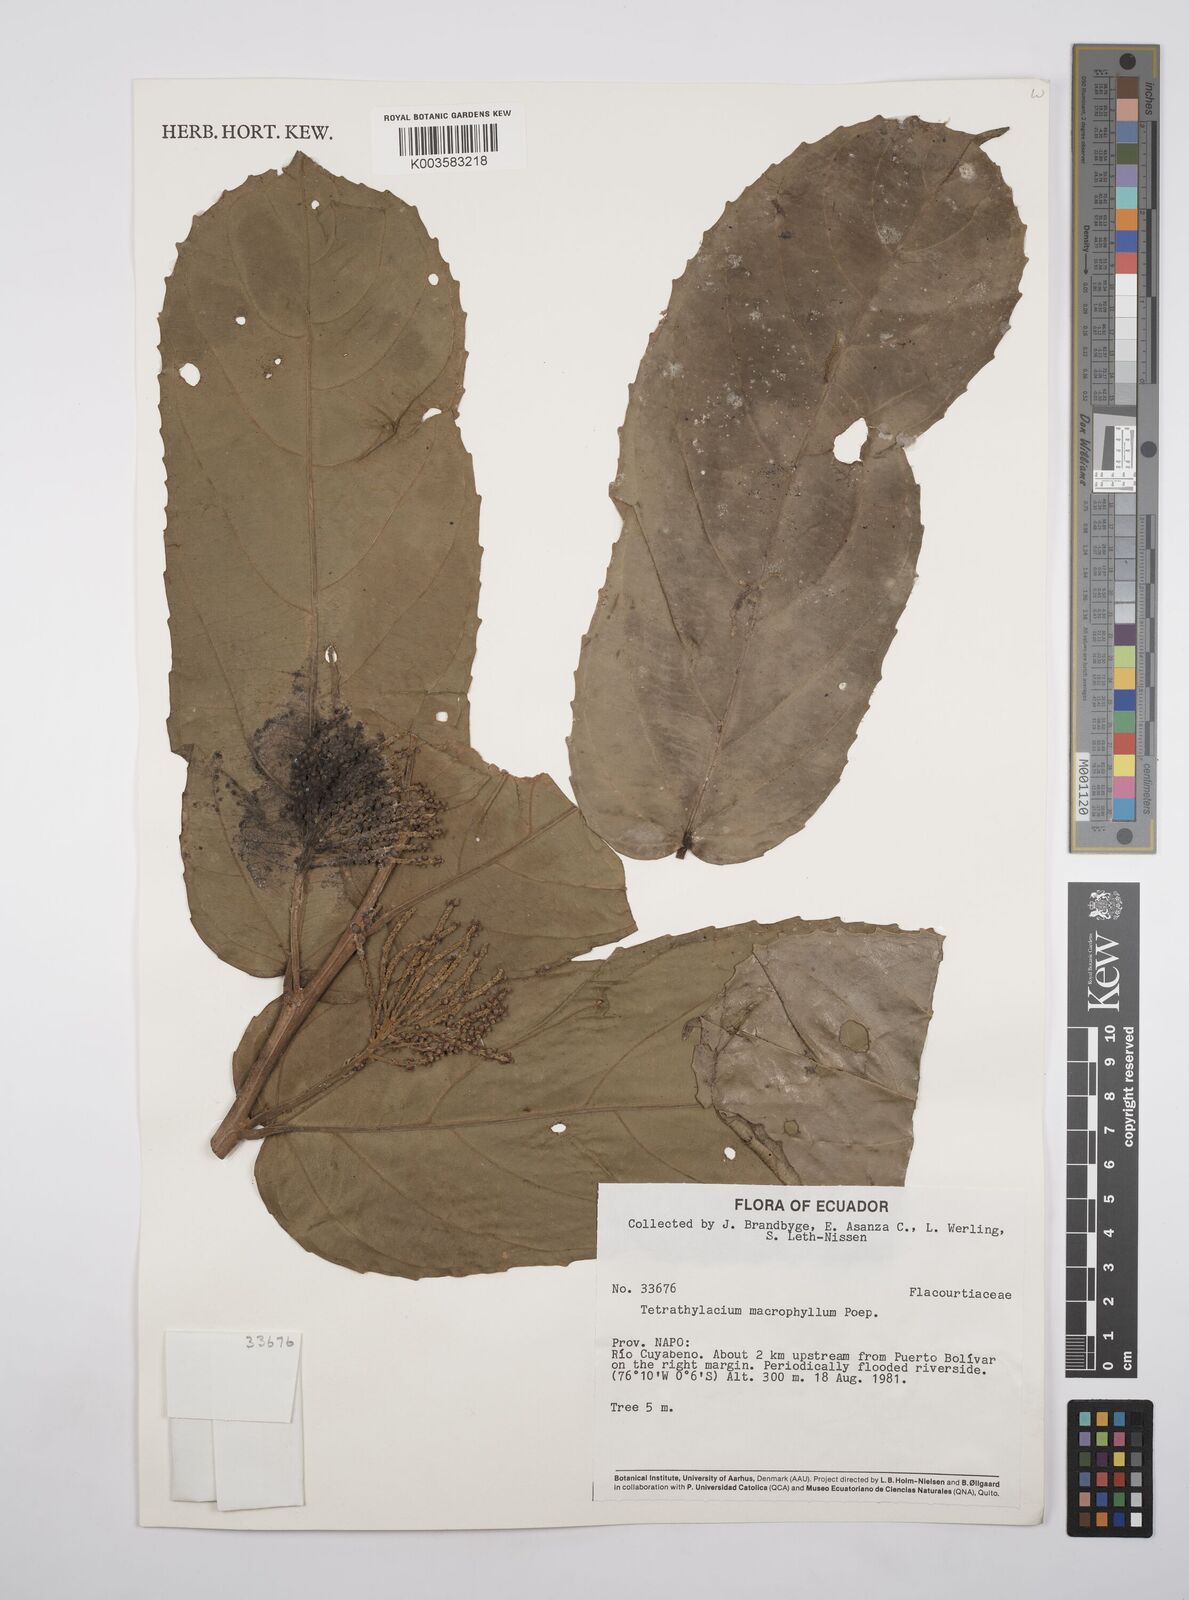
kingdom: Plantae
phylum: Tracheophyta
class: Magnoliopsida
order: Malpighiales
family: Salicaceae
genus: Tetrathylacium
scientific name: Tetrathylacium macrophyllum
